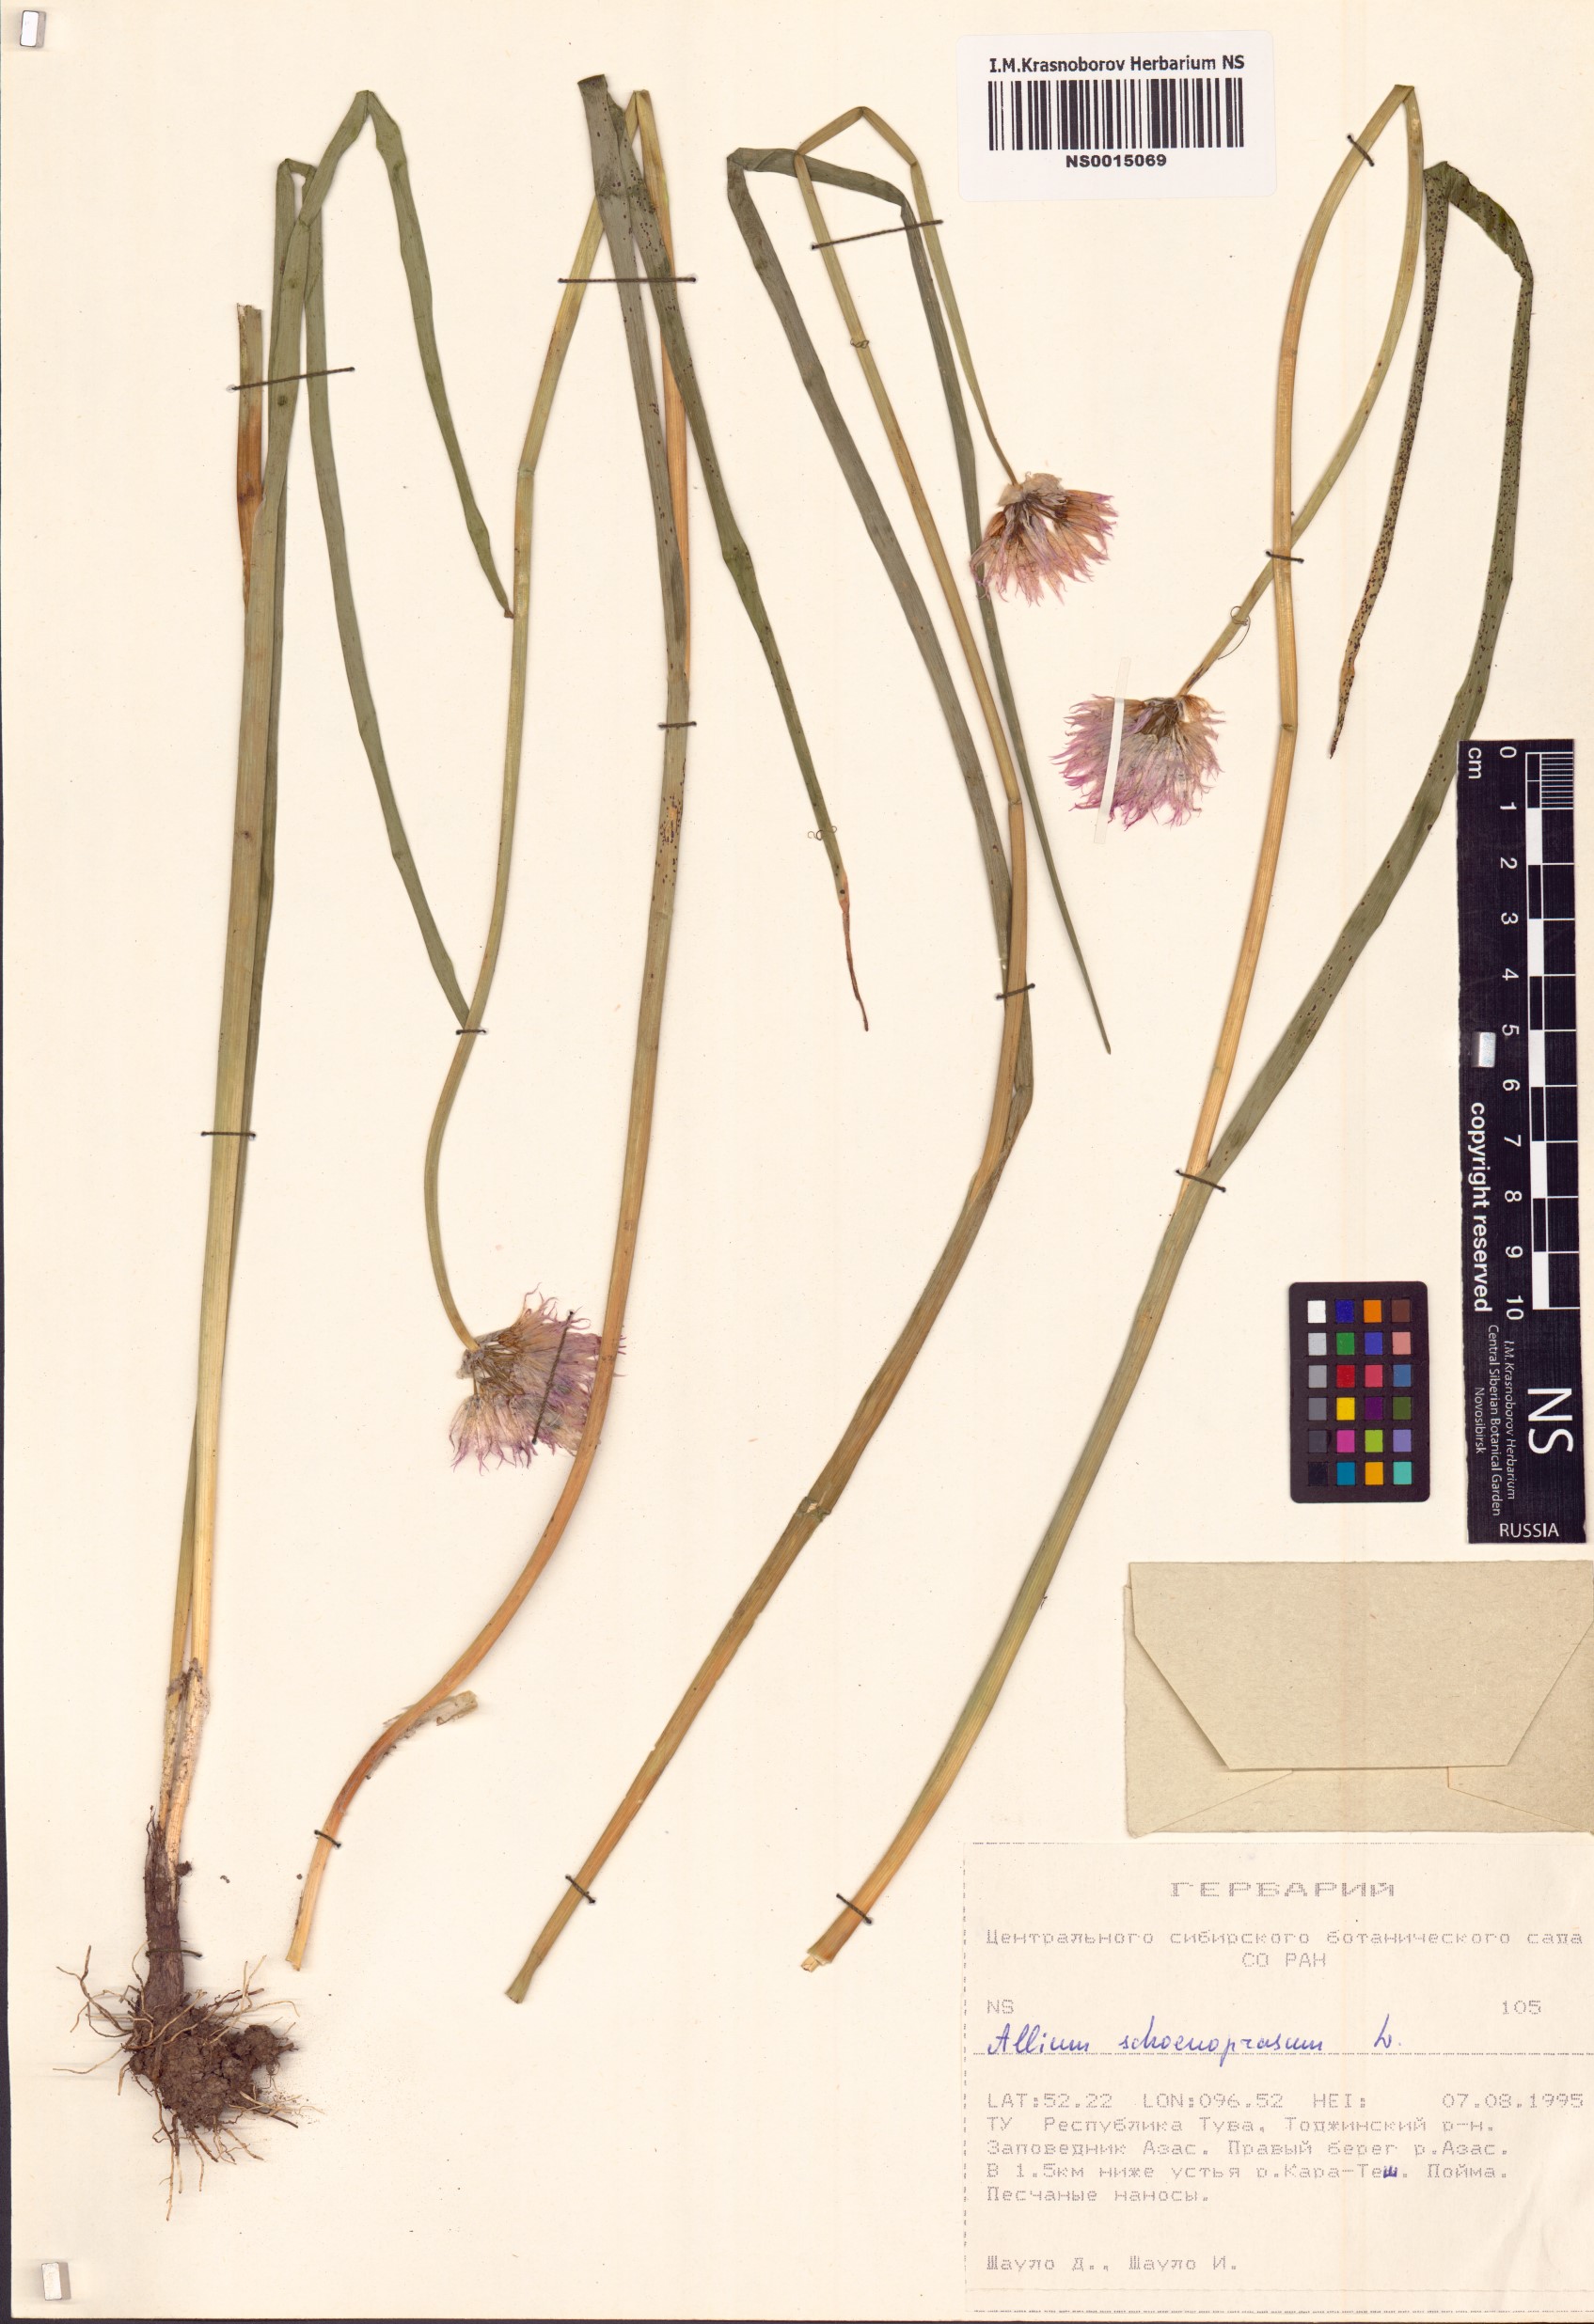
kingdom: Plantae
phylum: Tracheophyta
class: Liliopsida
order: Asparagales
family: Amaryllidaceae
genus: Allium
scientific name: Allium schoenoprasum
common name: Chives
